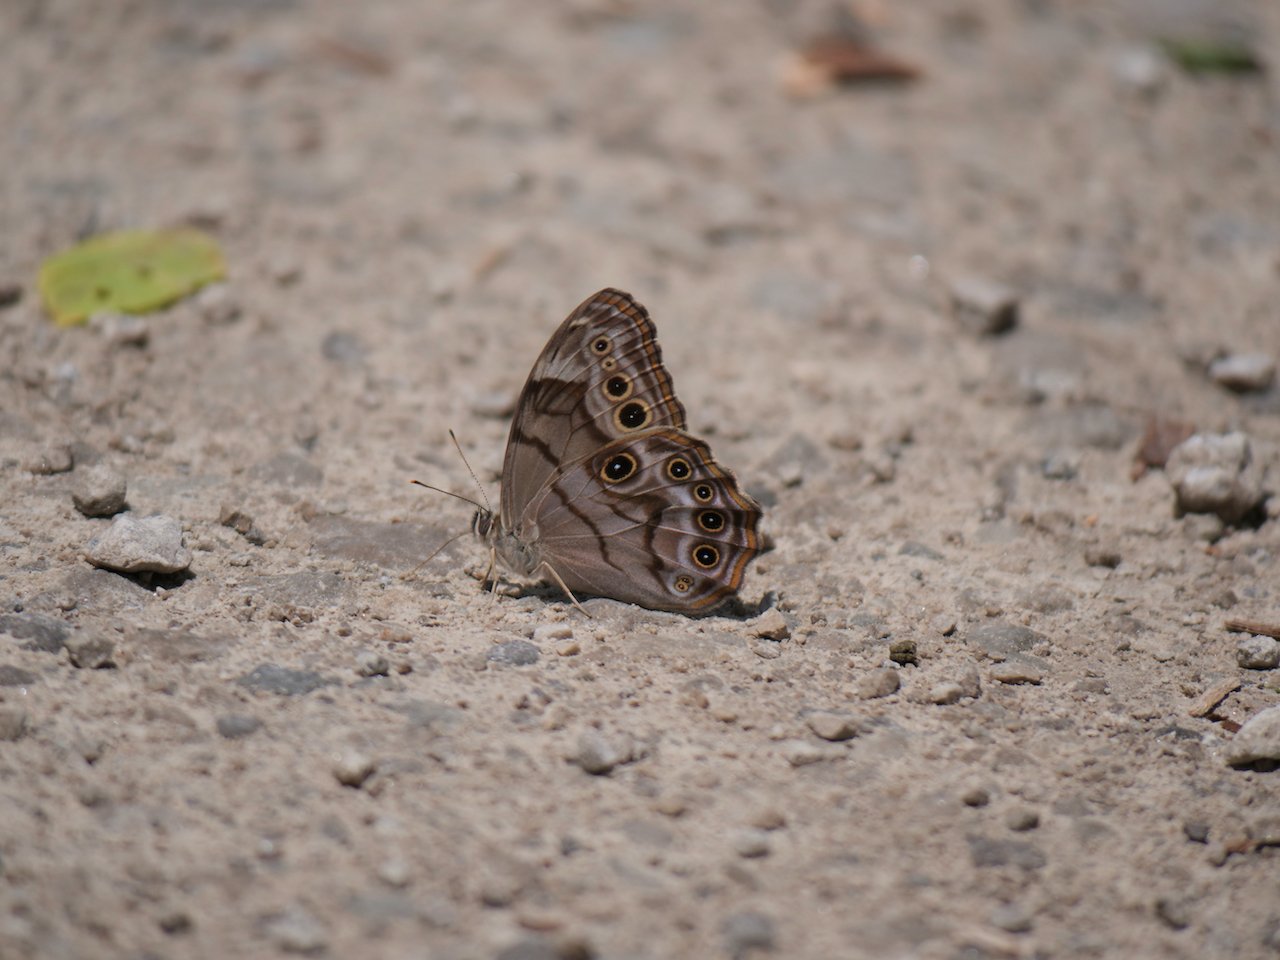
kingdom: Animalia
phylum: Arthropoda
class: Insecta
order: Lepidoptera
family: Nymphalidae
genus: Lethe
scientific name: Lethe anthedon
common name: Northern Pearly-Eye
